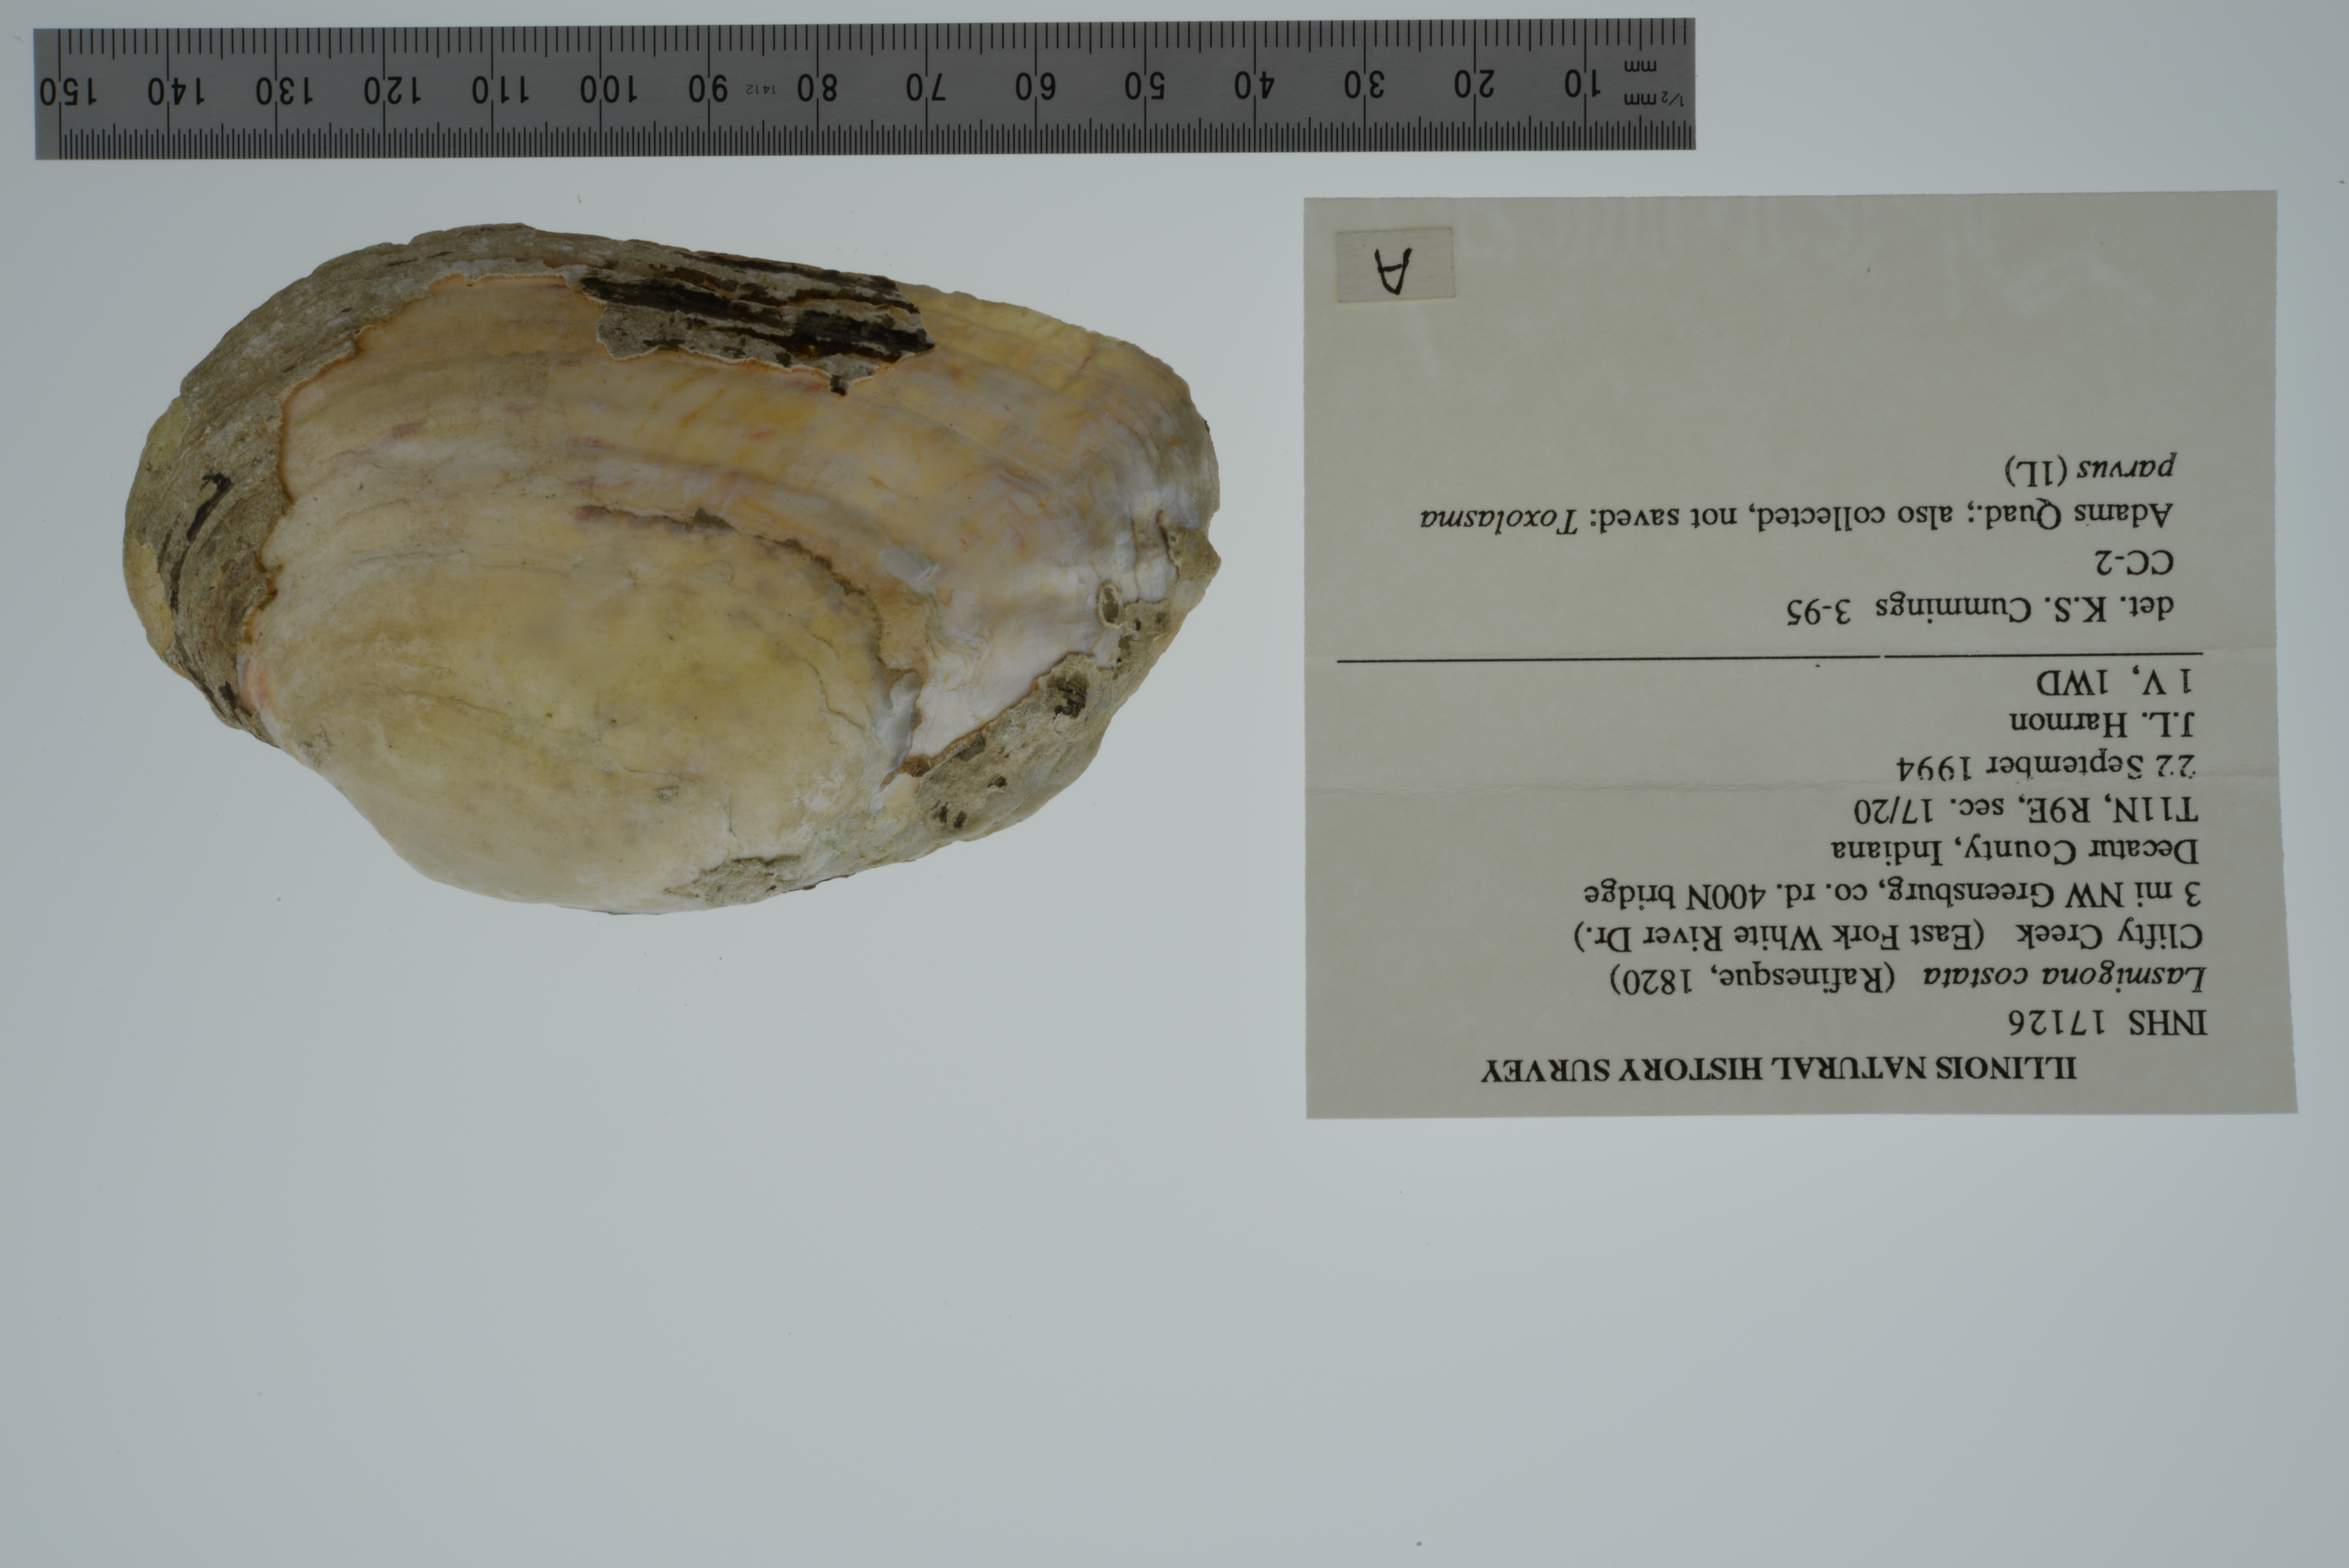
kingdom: Animalia
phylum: Mollusca
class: Bivalvia
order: Unionida
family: Unionidae
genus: Lasmigona
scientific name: Lasmigona costata
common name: Flutedshell
